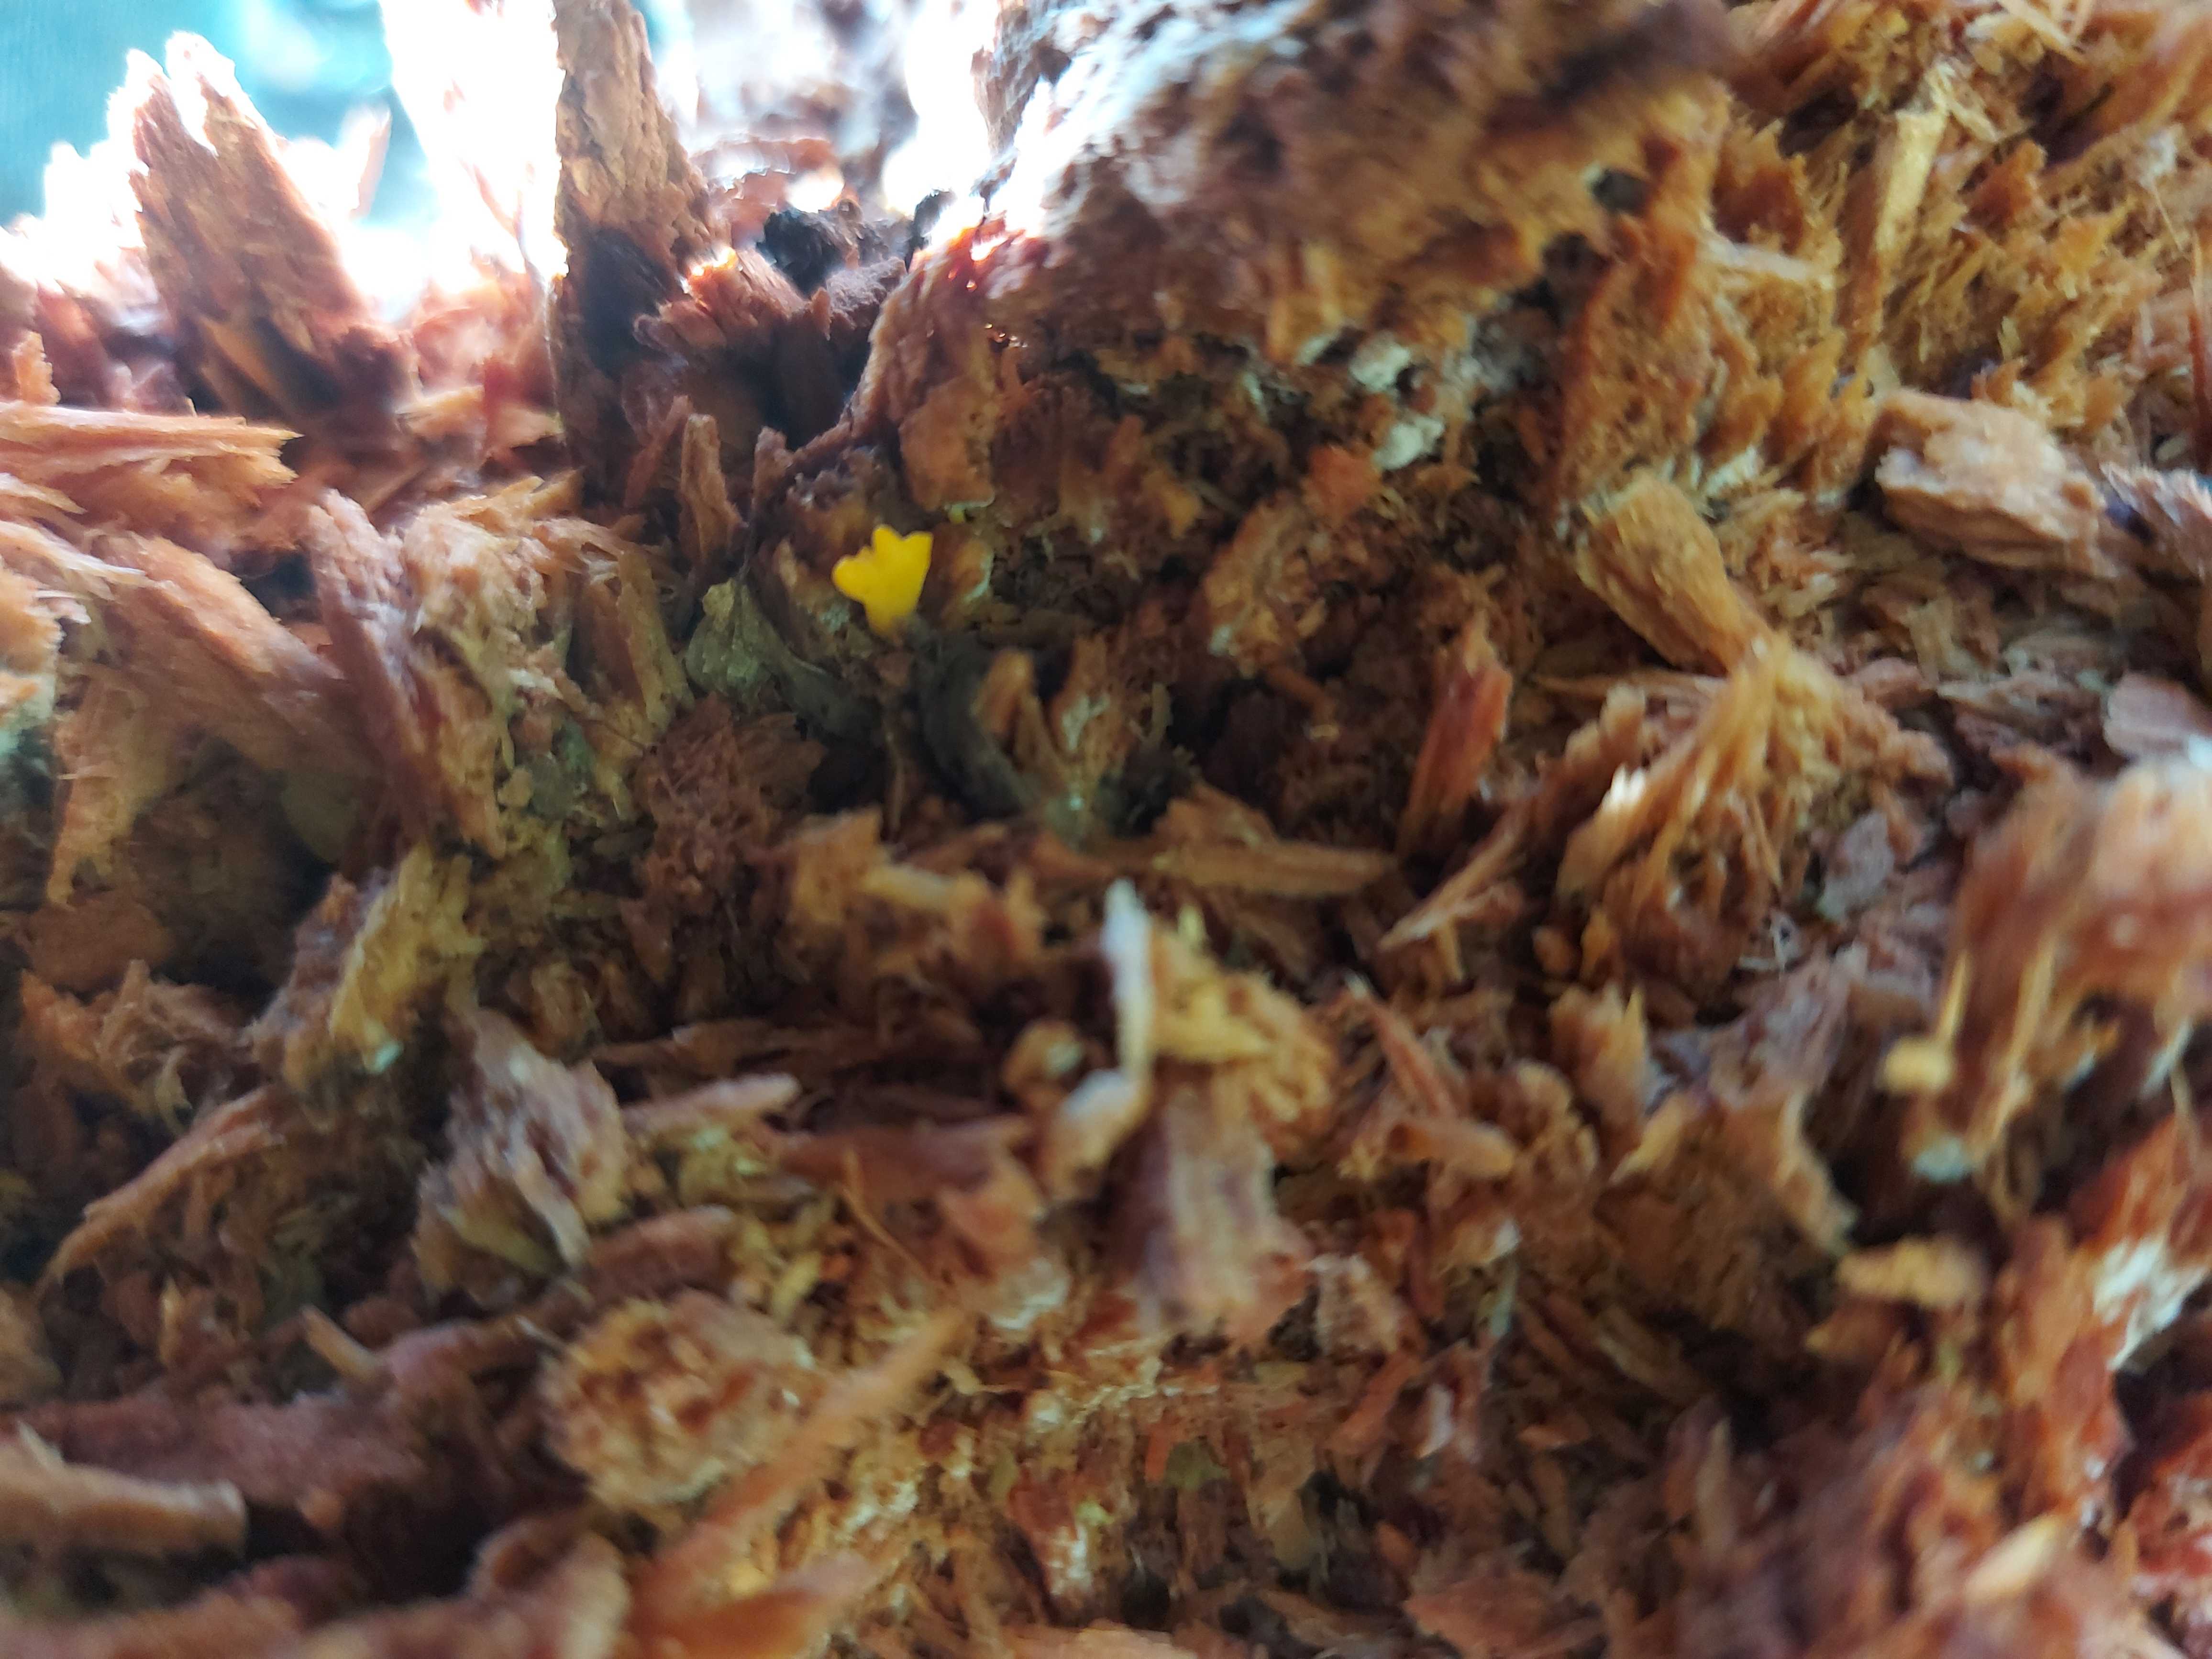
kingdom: Fungi
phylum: Basidiomycota
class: Dacrymycetes
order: Dacrymycetales
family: Dacrymycetaceae
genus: Calocera
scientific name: Calocera cornea
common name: liden guldgaffel
